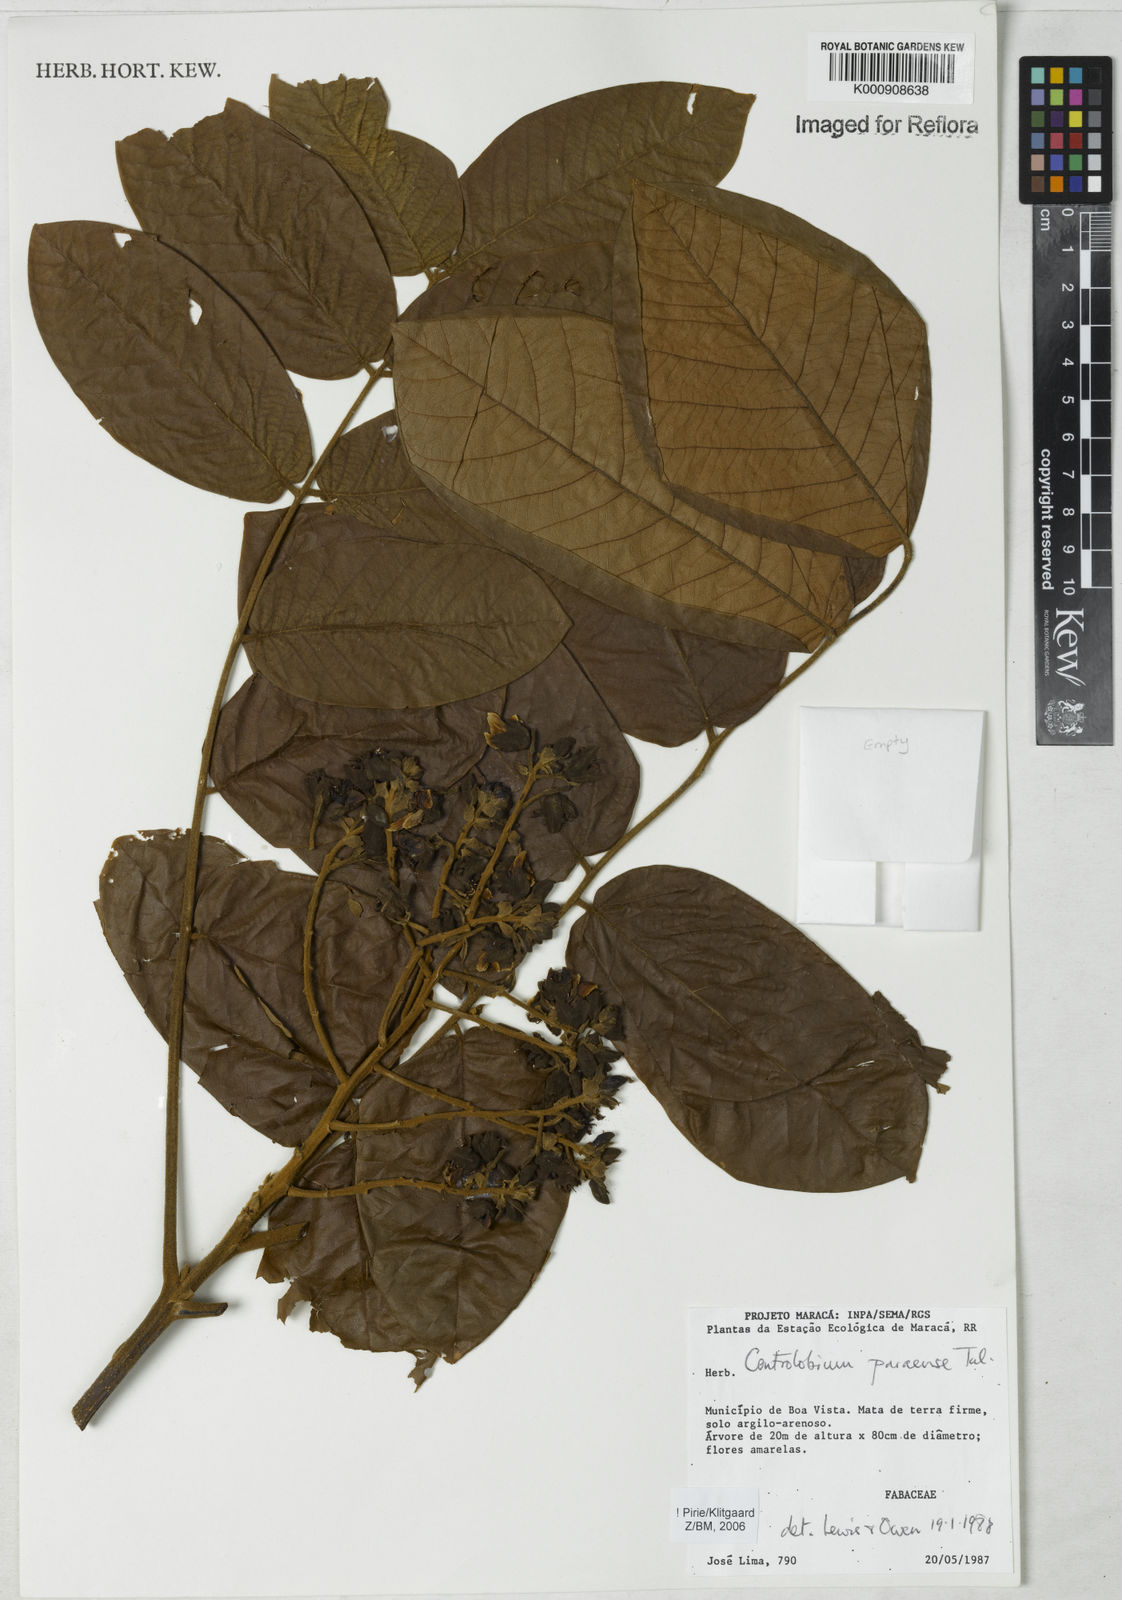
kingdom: Plantae
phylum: Tracheophyta
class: Magnoliopsida
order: Fabales
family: Fabaceae
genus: Centrolobium
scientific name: Centrolobium paraense
